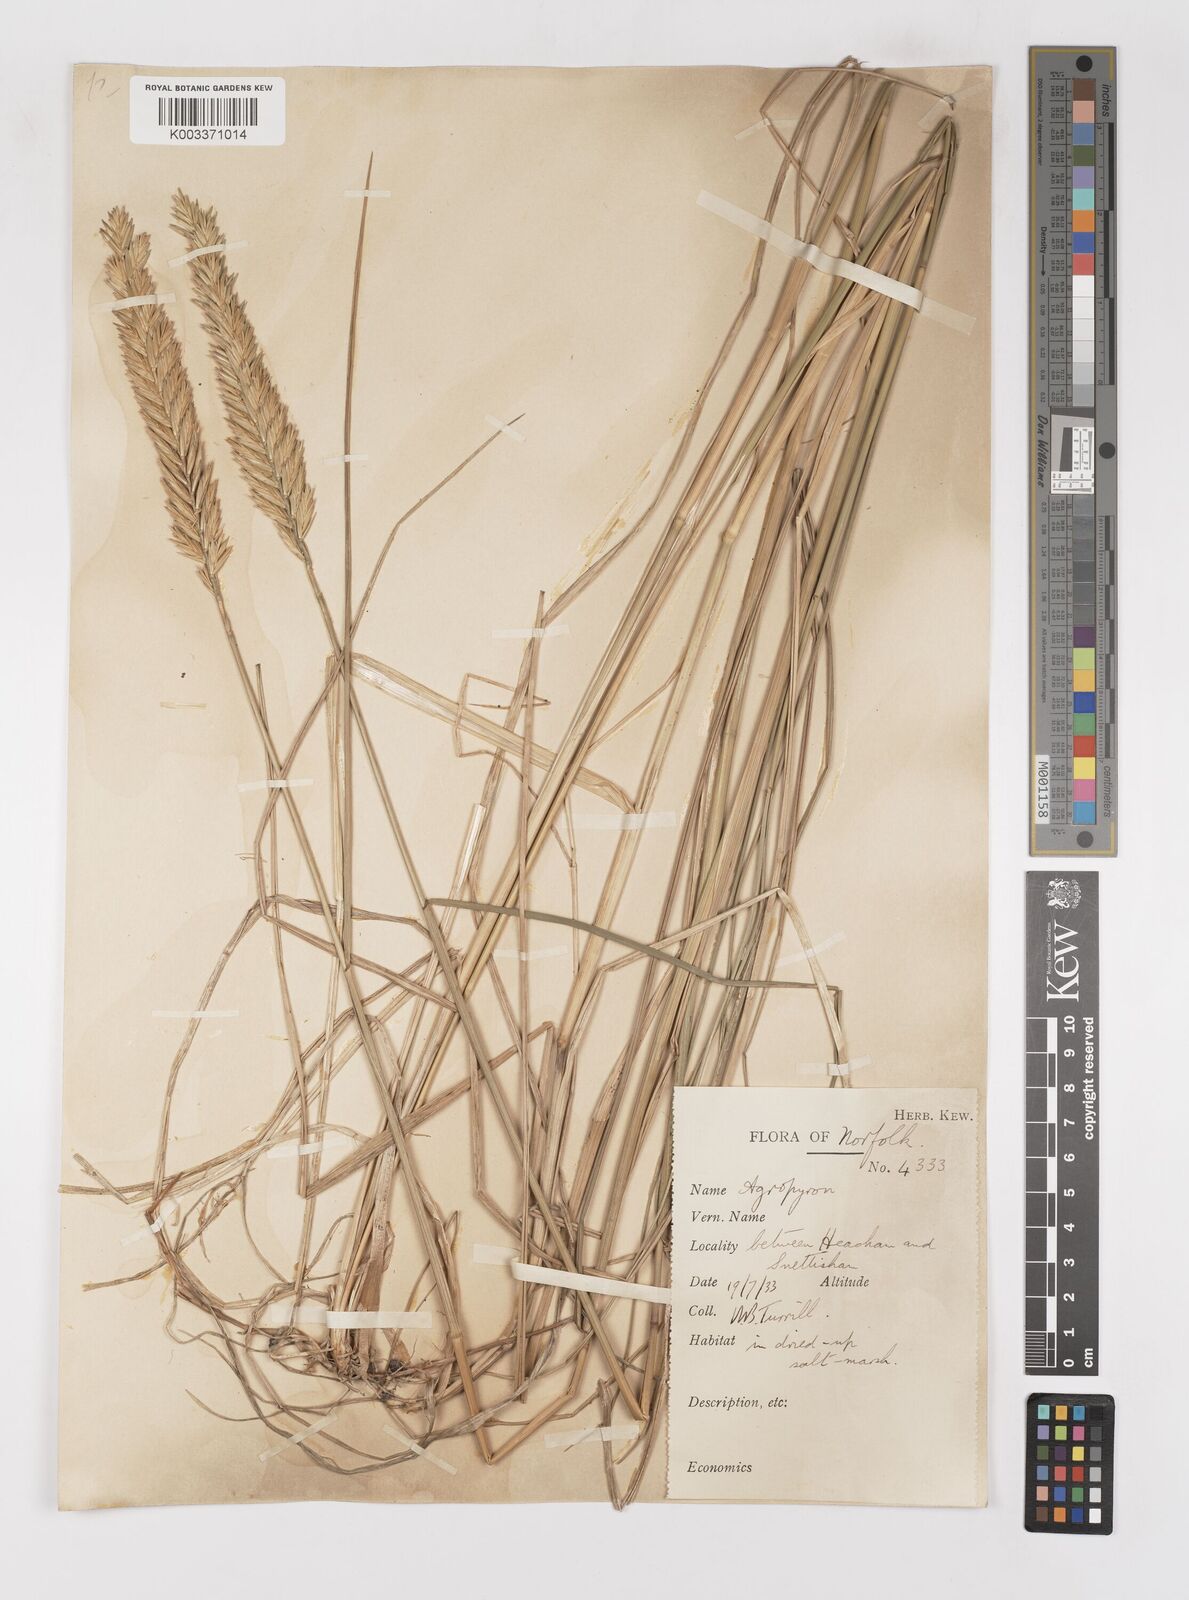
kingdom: Plantae
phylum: Tracheophyta
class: Liliopsida
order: Poales
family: Poaceae
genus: Elymus
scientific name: Elymus repens
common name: Quackgrass
